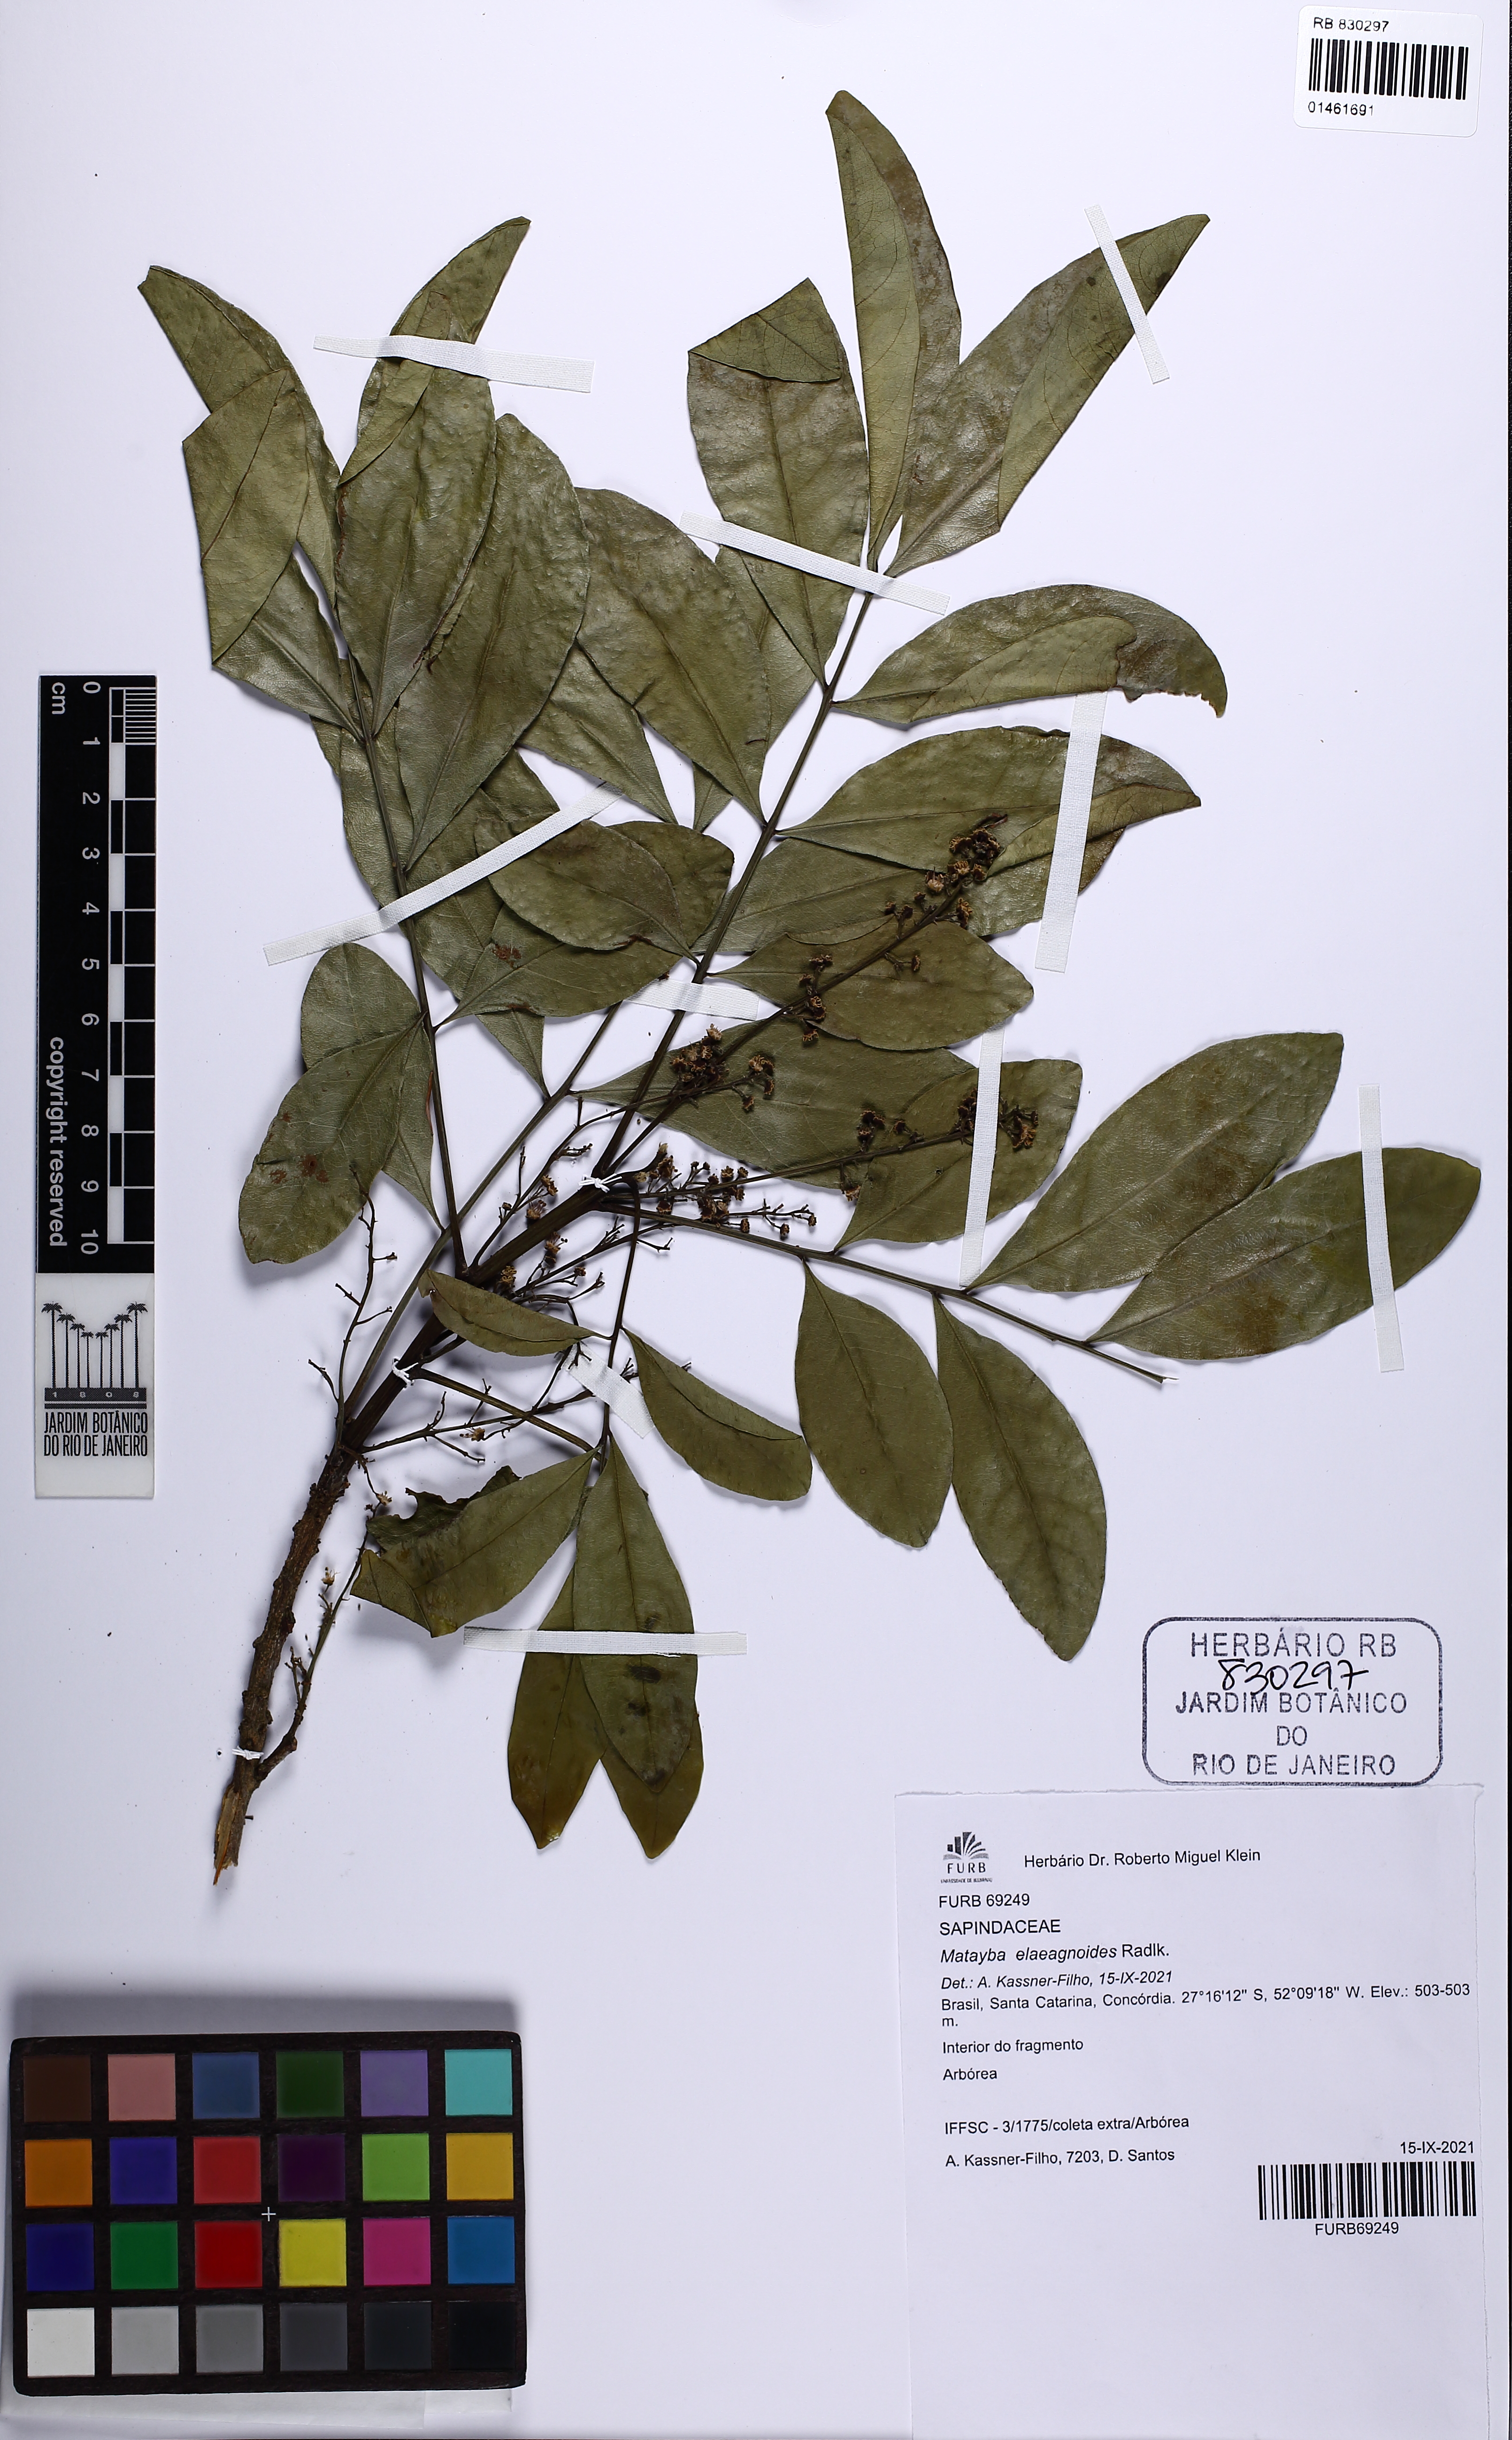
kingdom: Plantae
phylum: Tracheophyta
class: Magnoliopsida
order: Sapindales
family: Sapindaceae
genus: Matayba
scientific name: Matayba elaeagnoides
